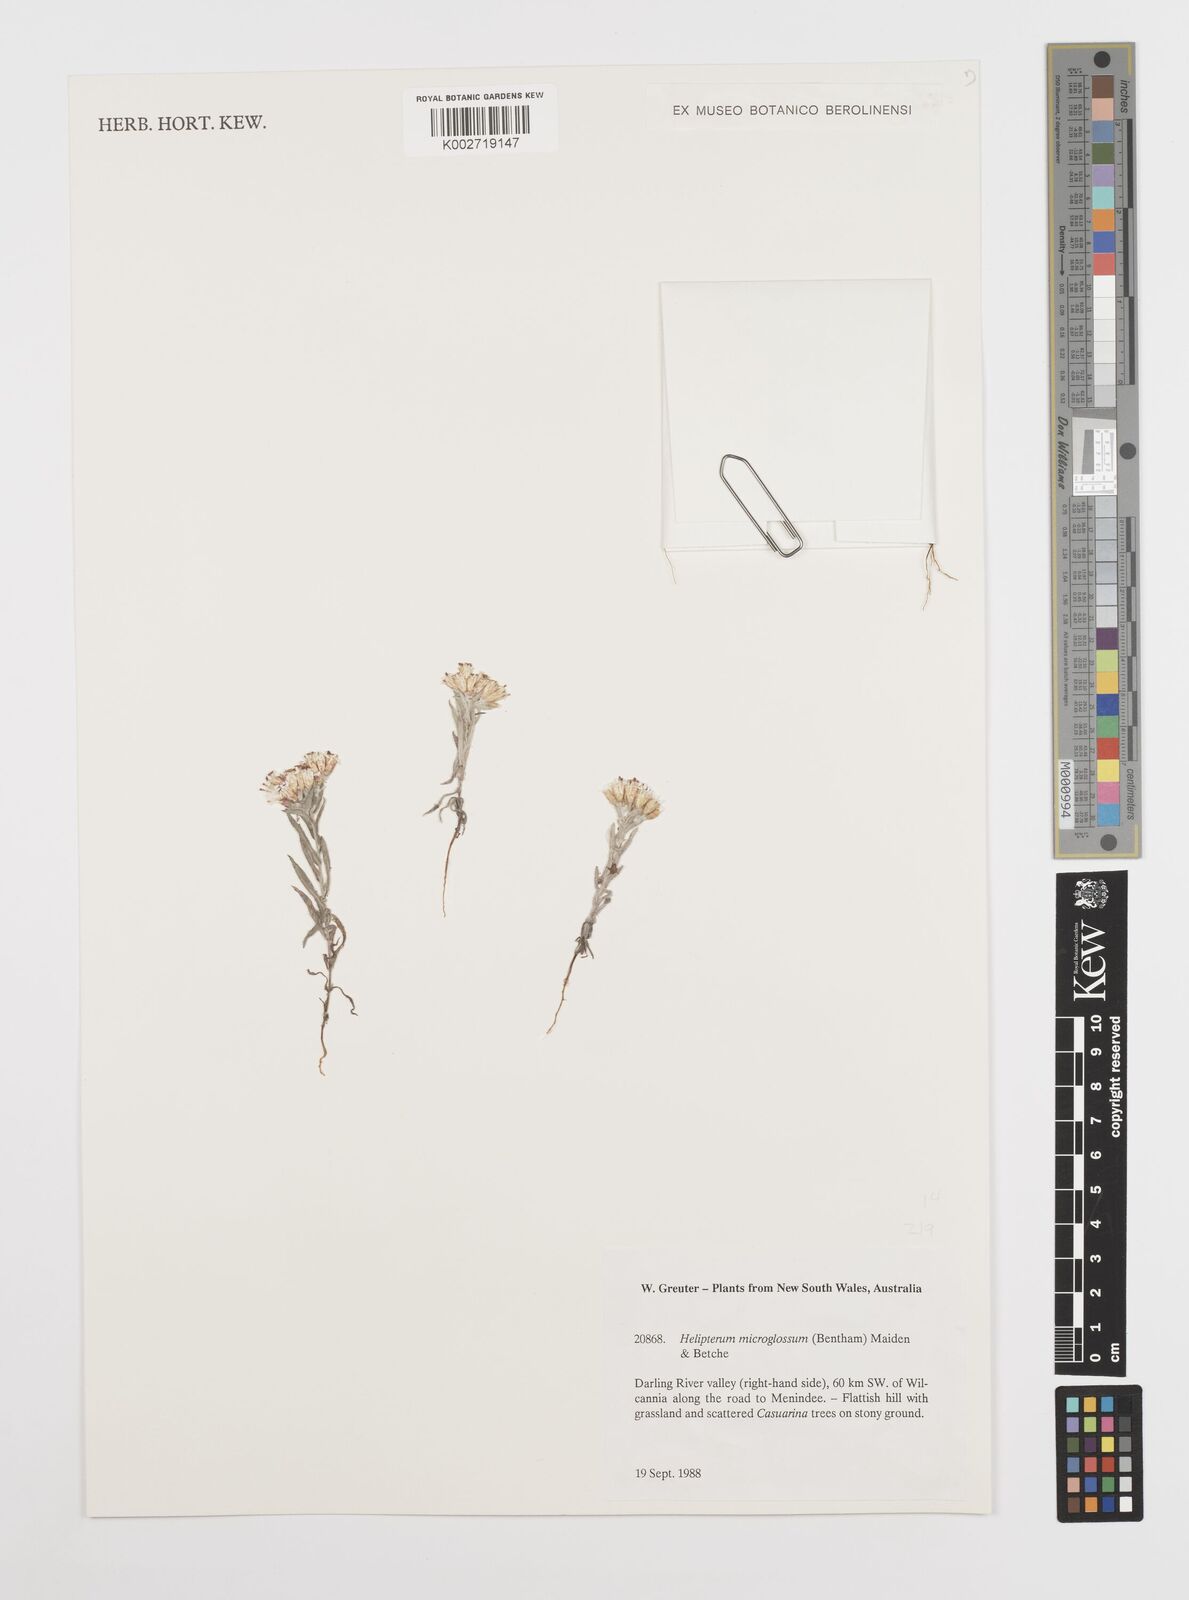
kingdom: Plantae
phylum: Tracheophyta
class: Magnoliopsida
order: Asterales
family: Asteraceae
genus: Rhodanthe
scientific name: Rhodanthe microglossa
